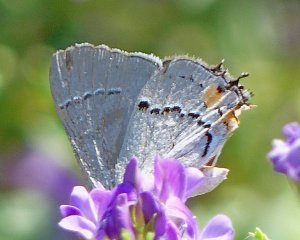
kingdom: Animalia
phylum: Arthropoda
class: Insecta
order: Lepidoptera
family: Lycaenidae
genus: Strymon
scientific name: Strymon melinus
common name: Gray Hairstreak
